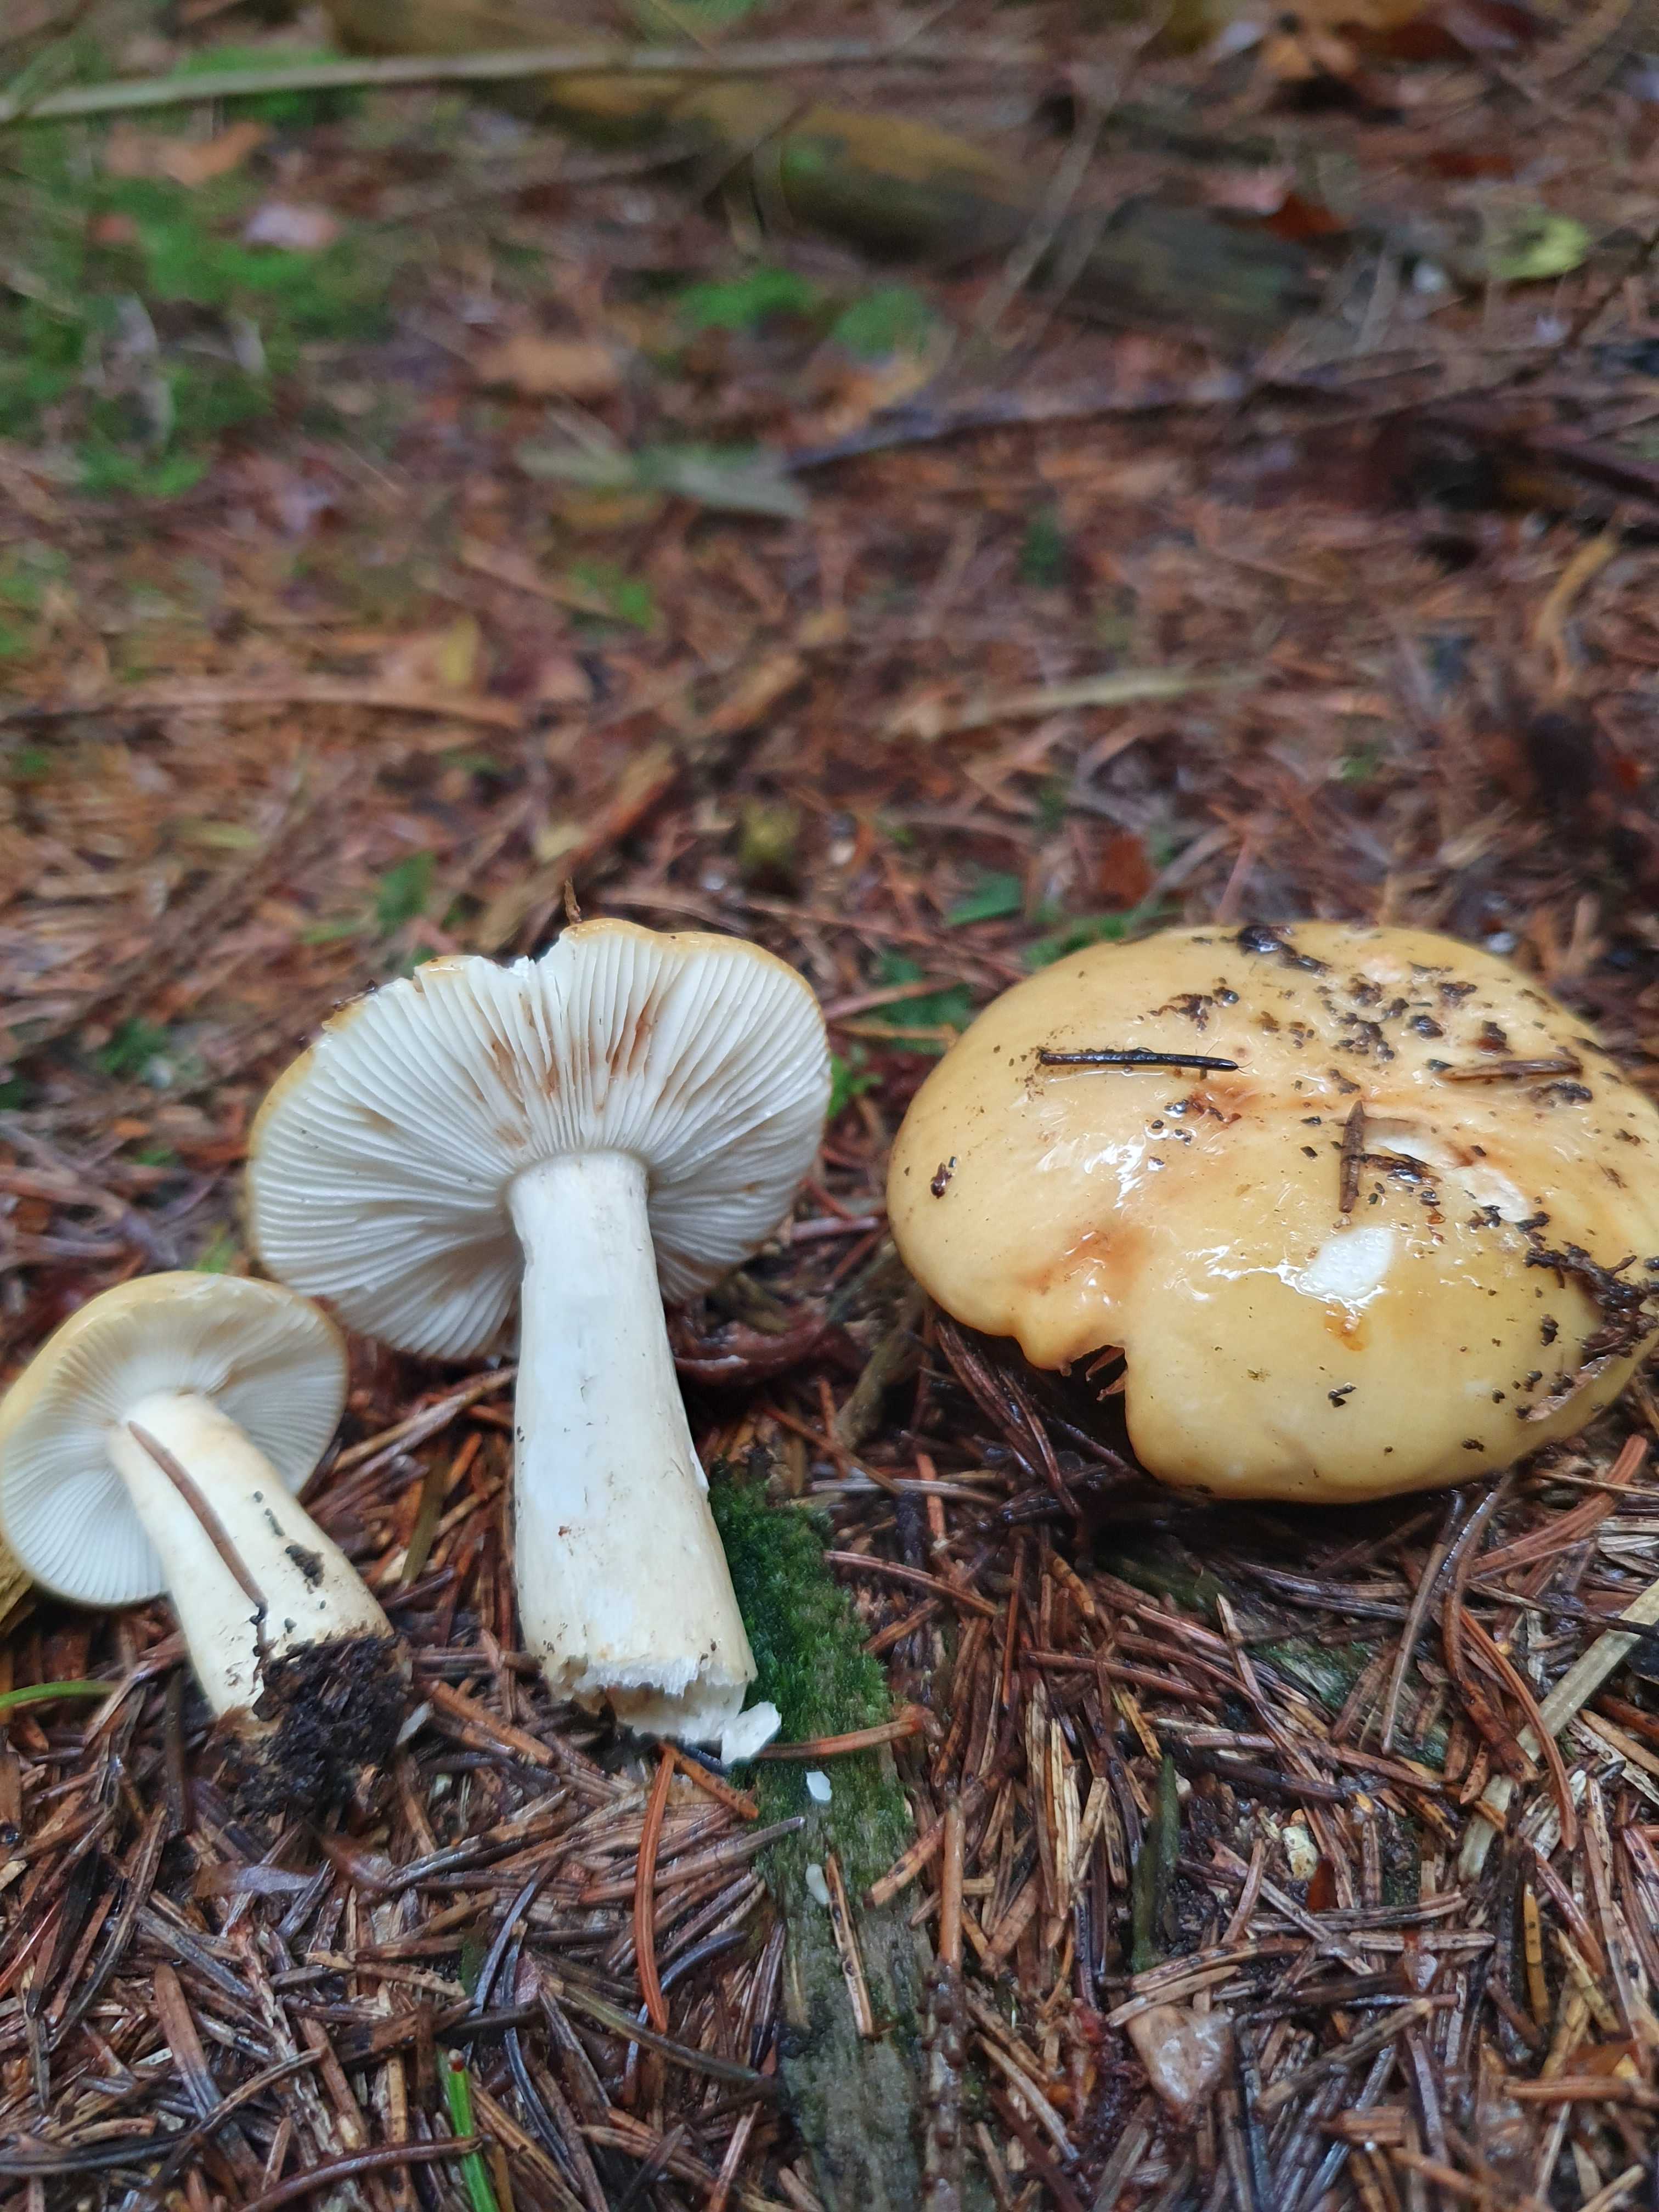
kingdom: Fungi
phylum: Basidiomycota
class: Agaricomycetes
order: Russulales
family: Russulaceae
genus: Russula
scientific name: Russula ochroleuca
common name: okkergul skørhat
